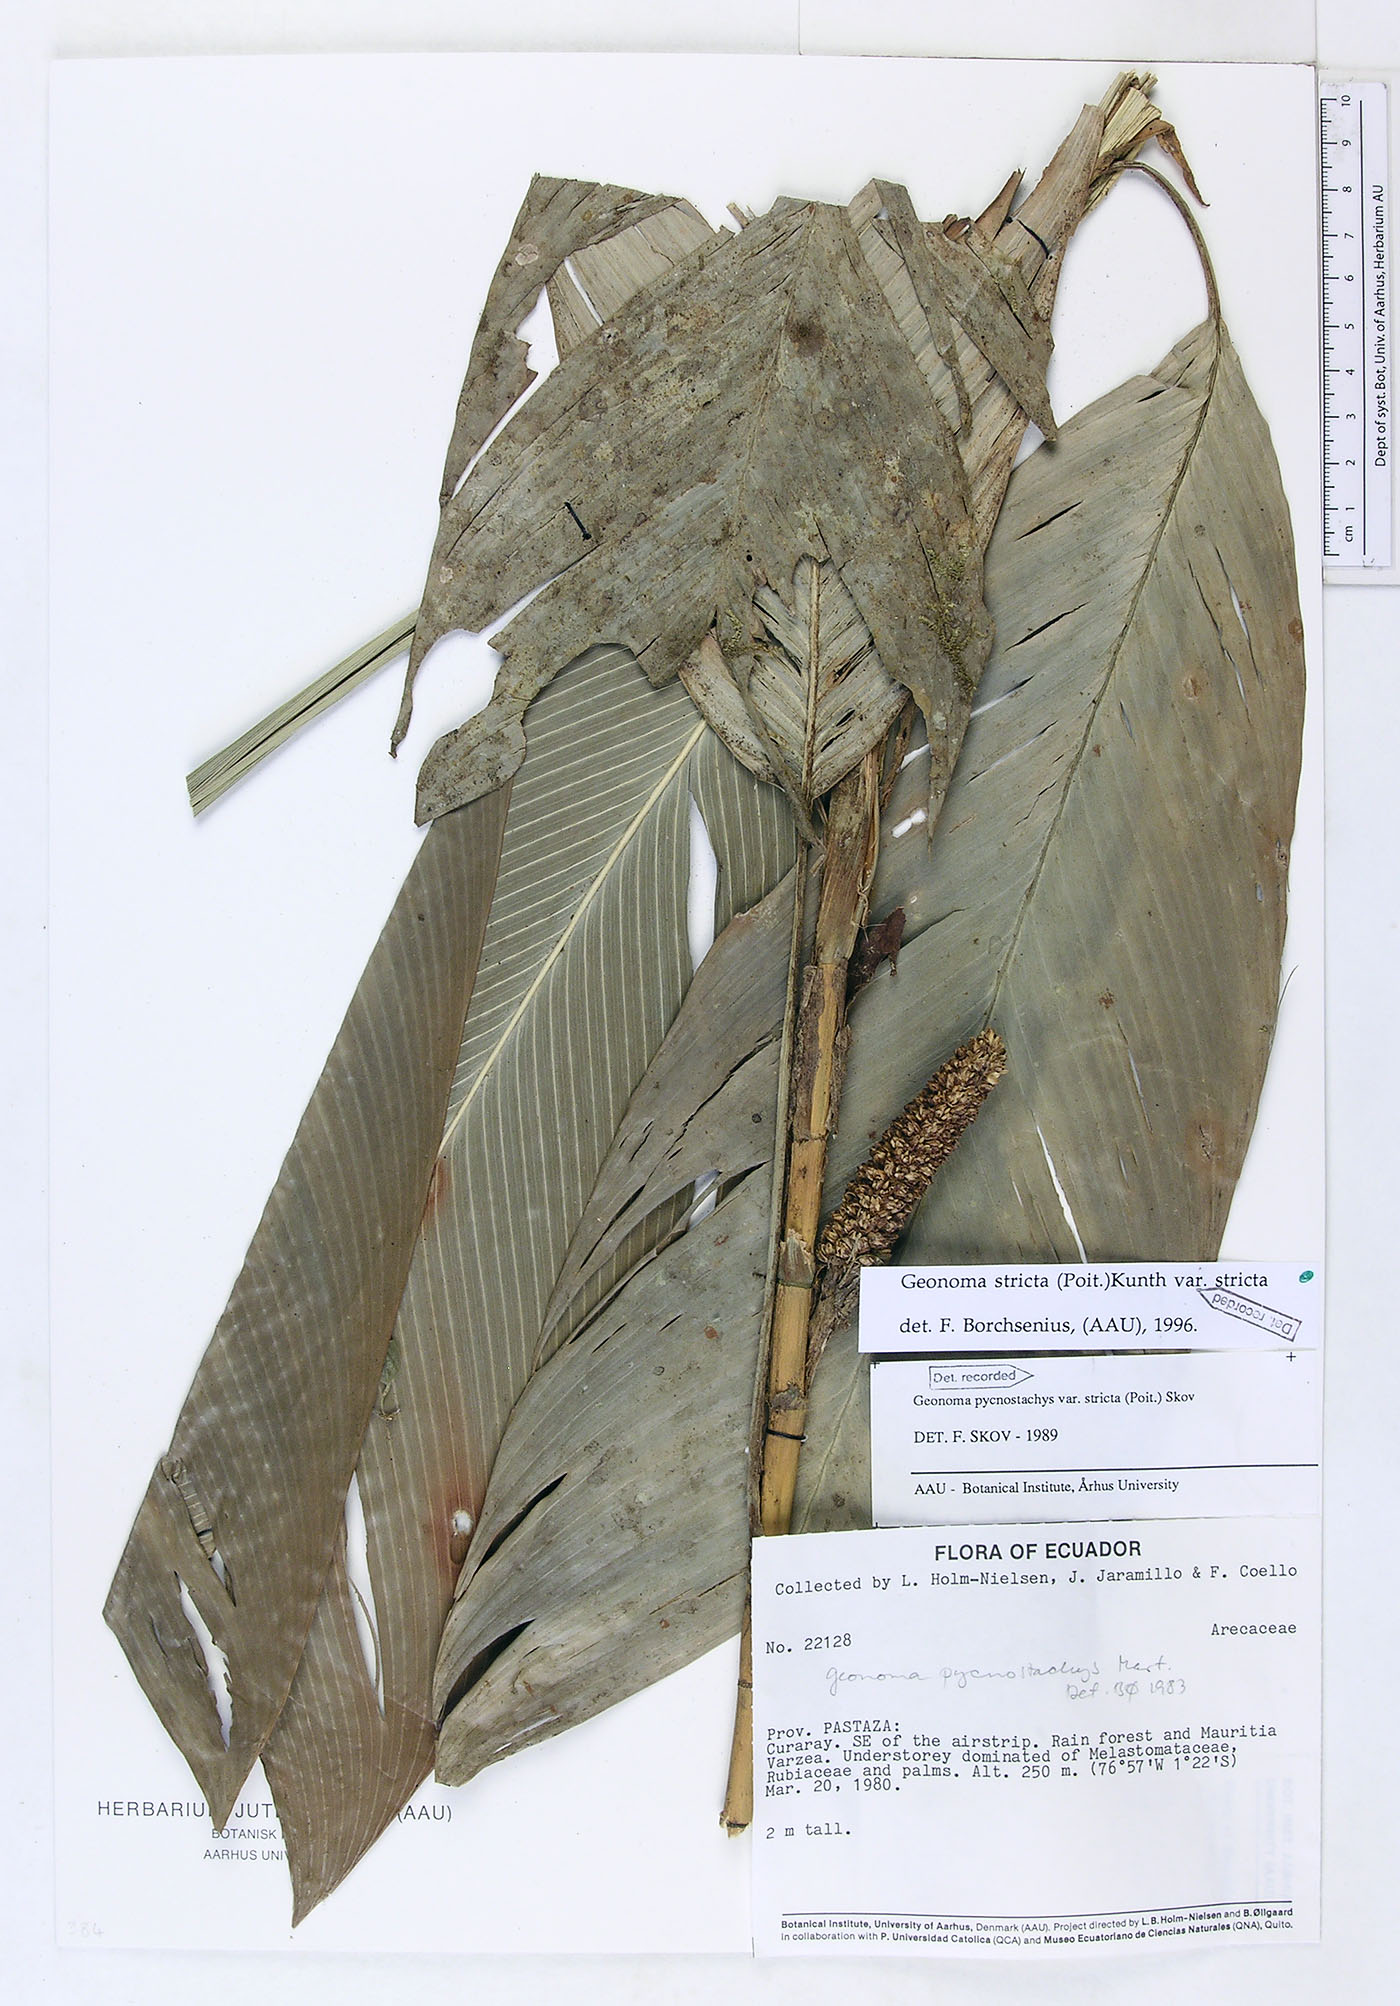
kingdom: Plantae
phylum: Tracheophyta
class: Liliopsida
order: Arecales
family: Arecaceae
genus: Geonoma
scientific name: Geonoma stricta
